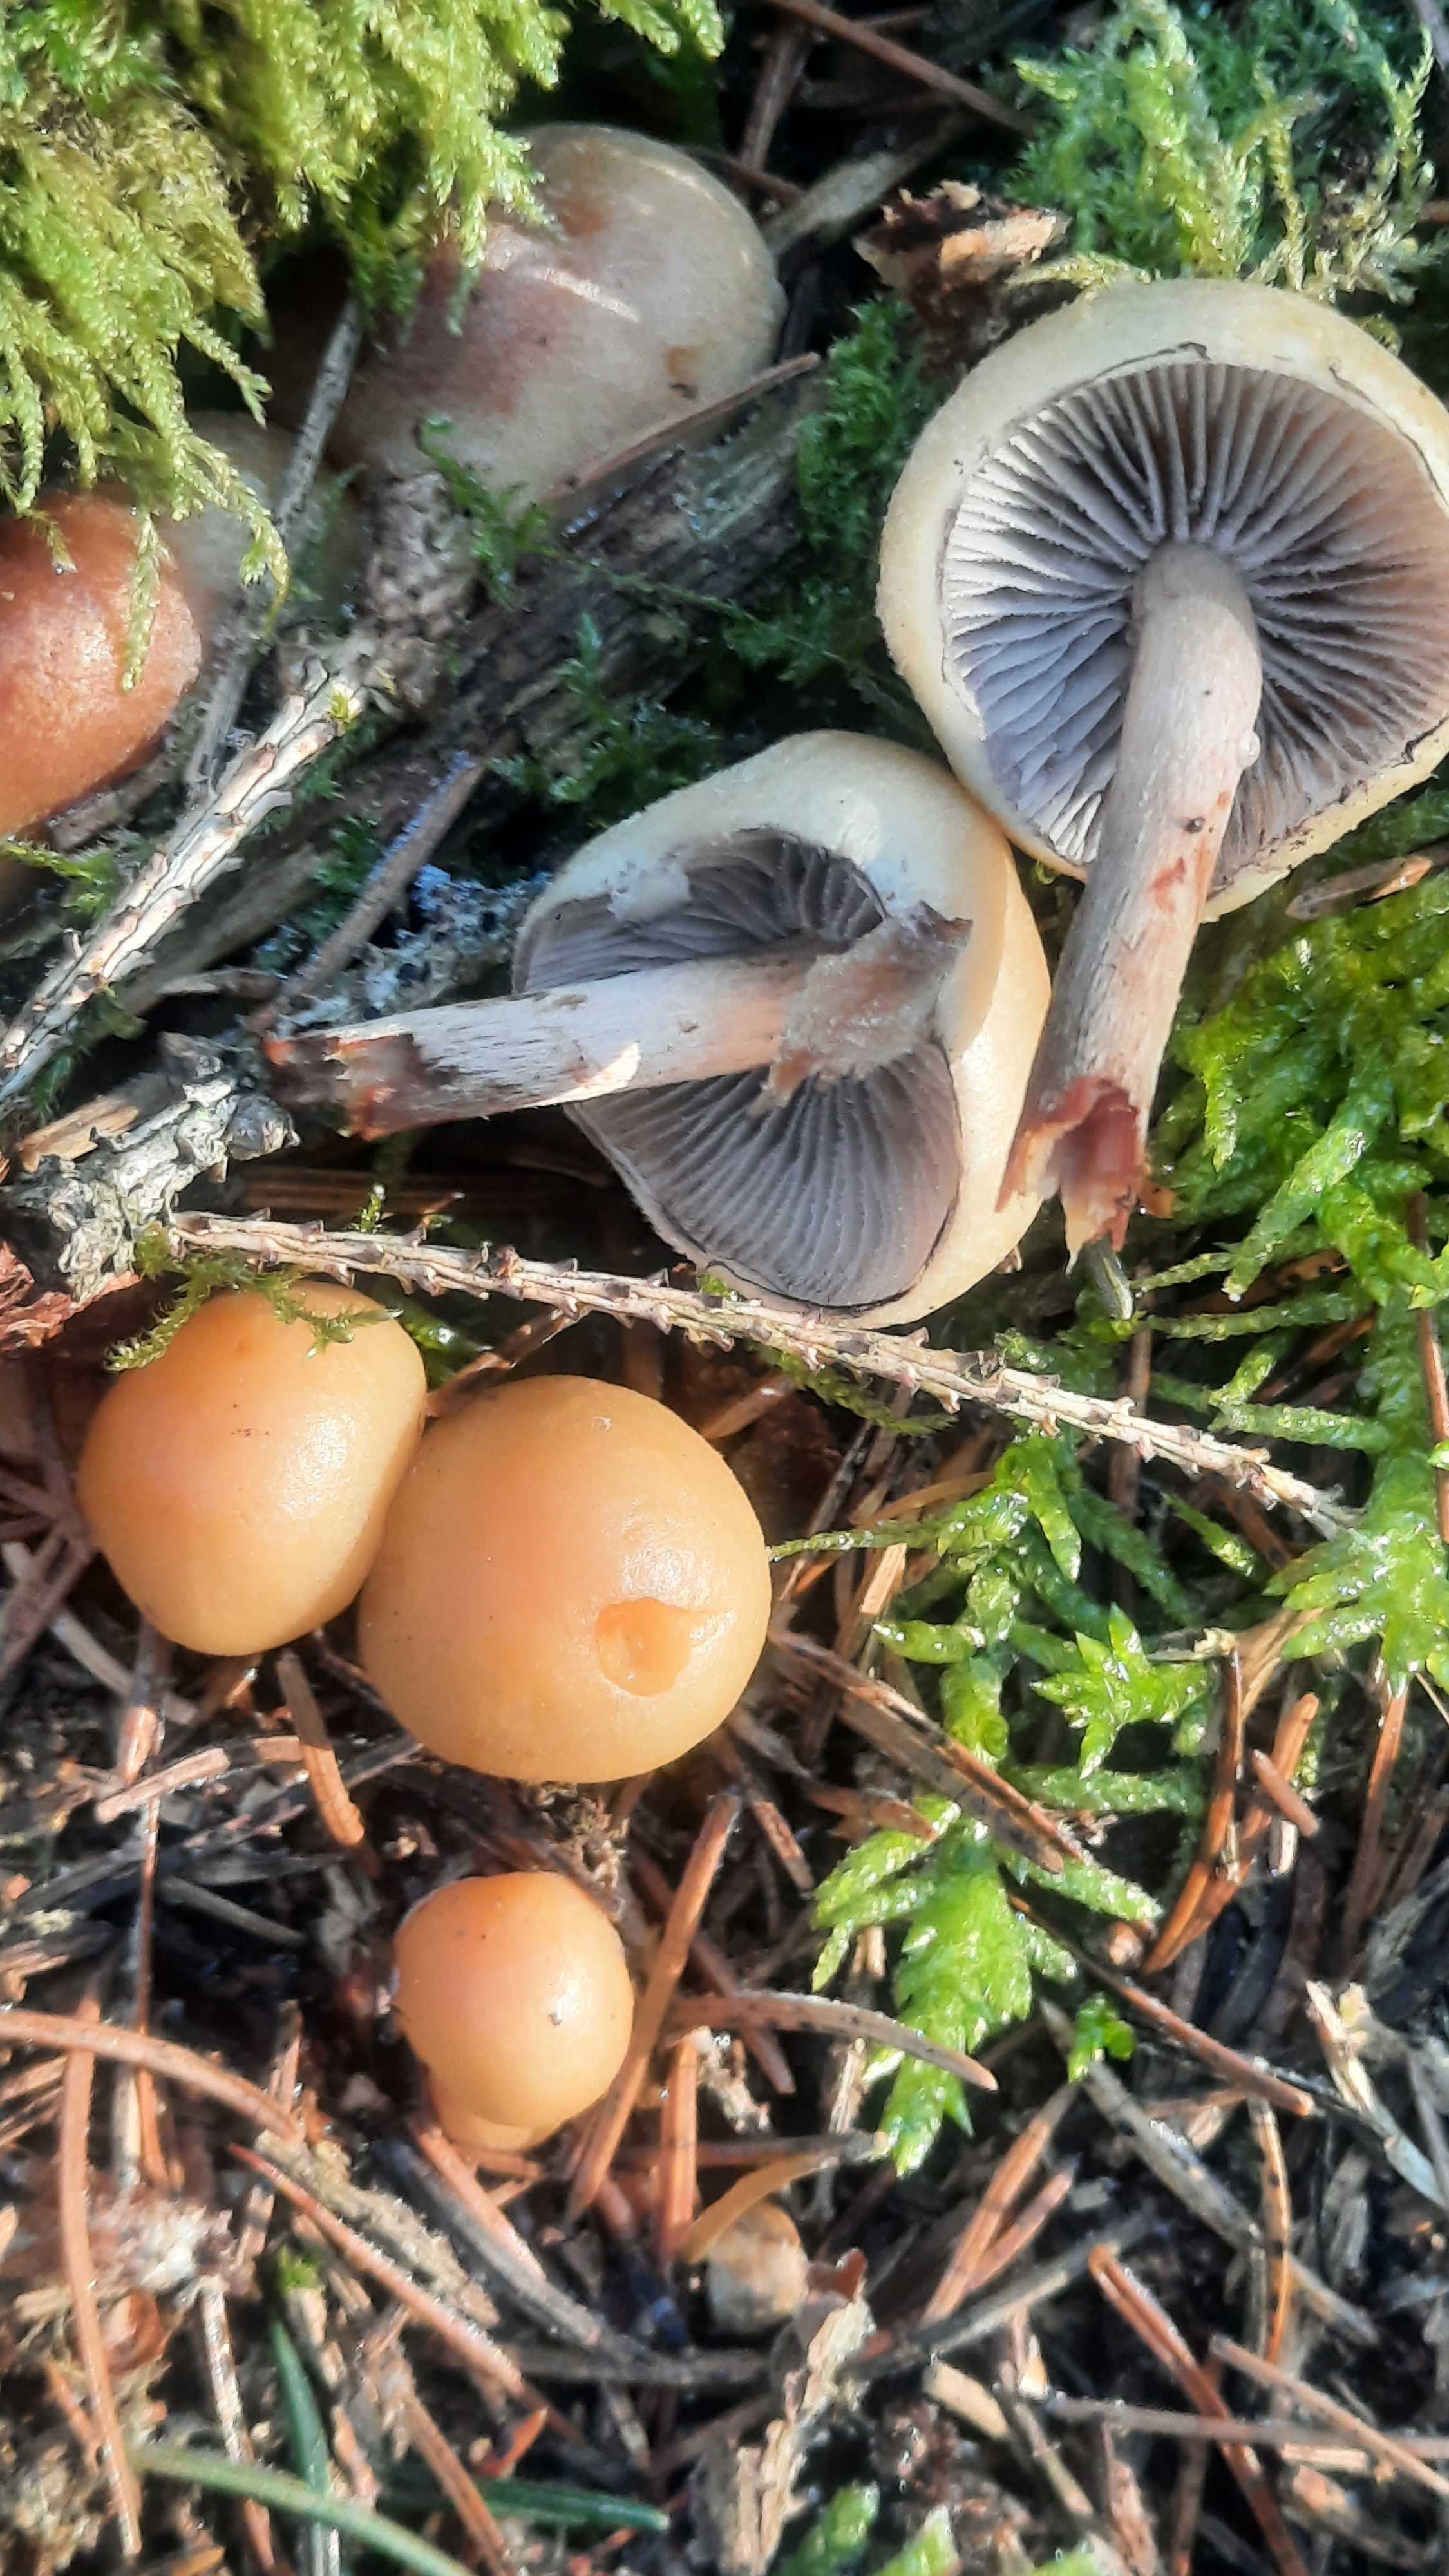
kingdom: Fungi
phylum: Basidiomycota
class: Agaricomycetes
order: Agaricales
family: Strophariaceae
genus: Hypholoma
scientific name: Hypholoma capnoides
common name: gran-svovlhat
